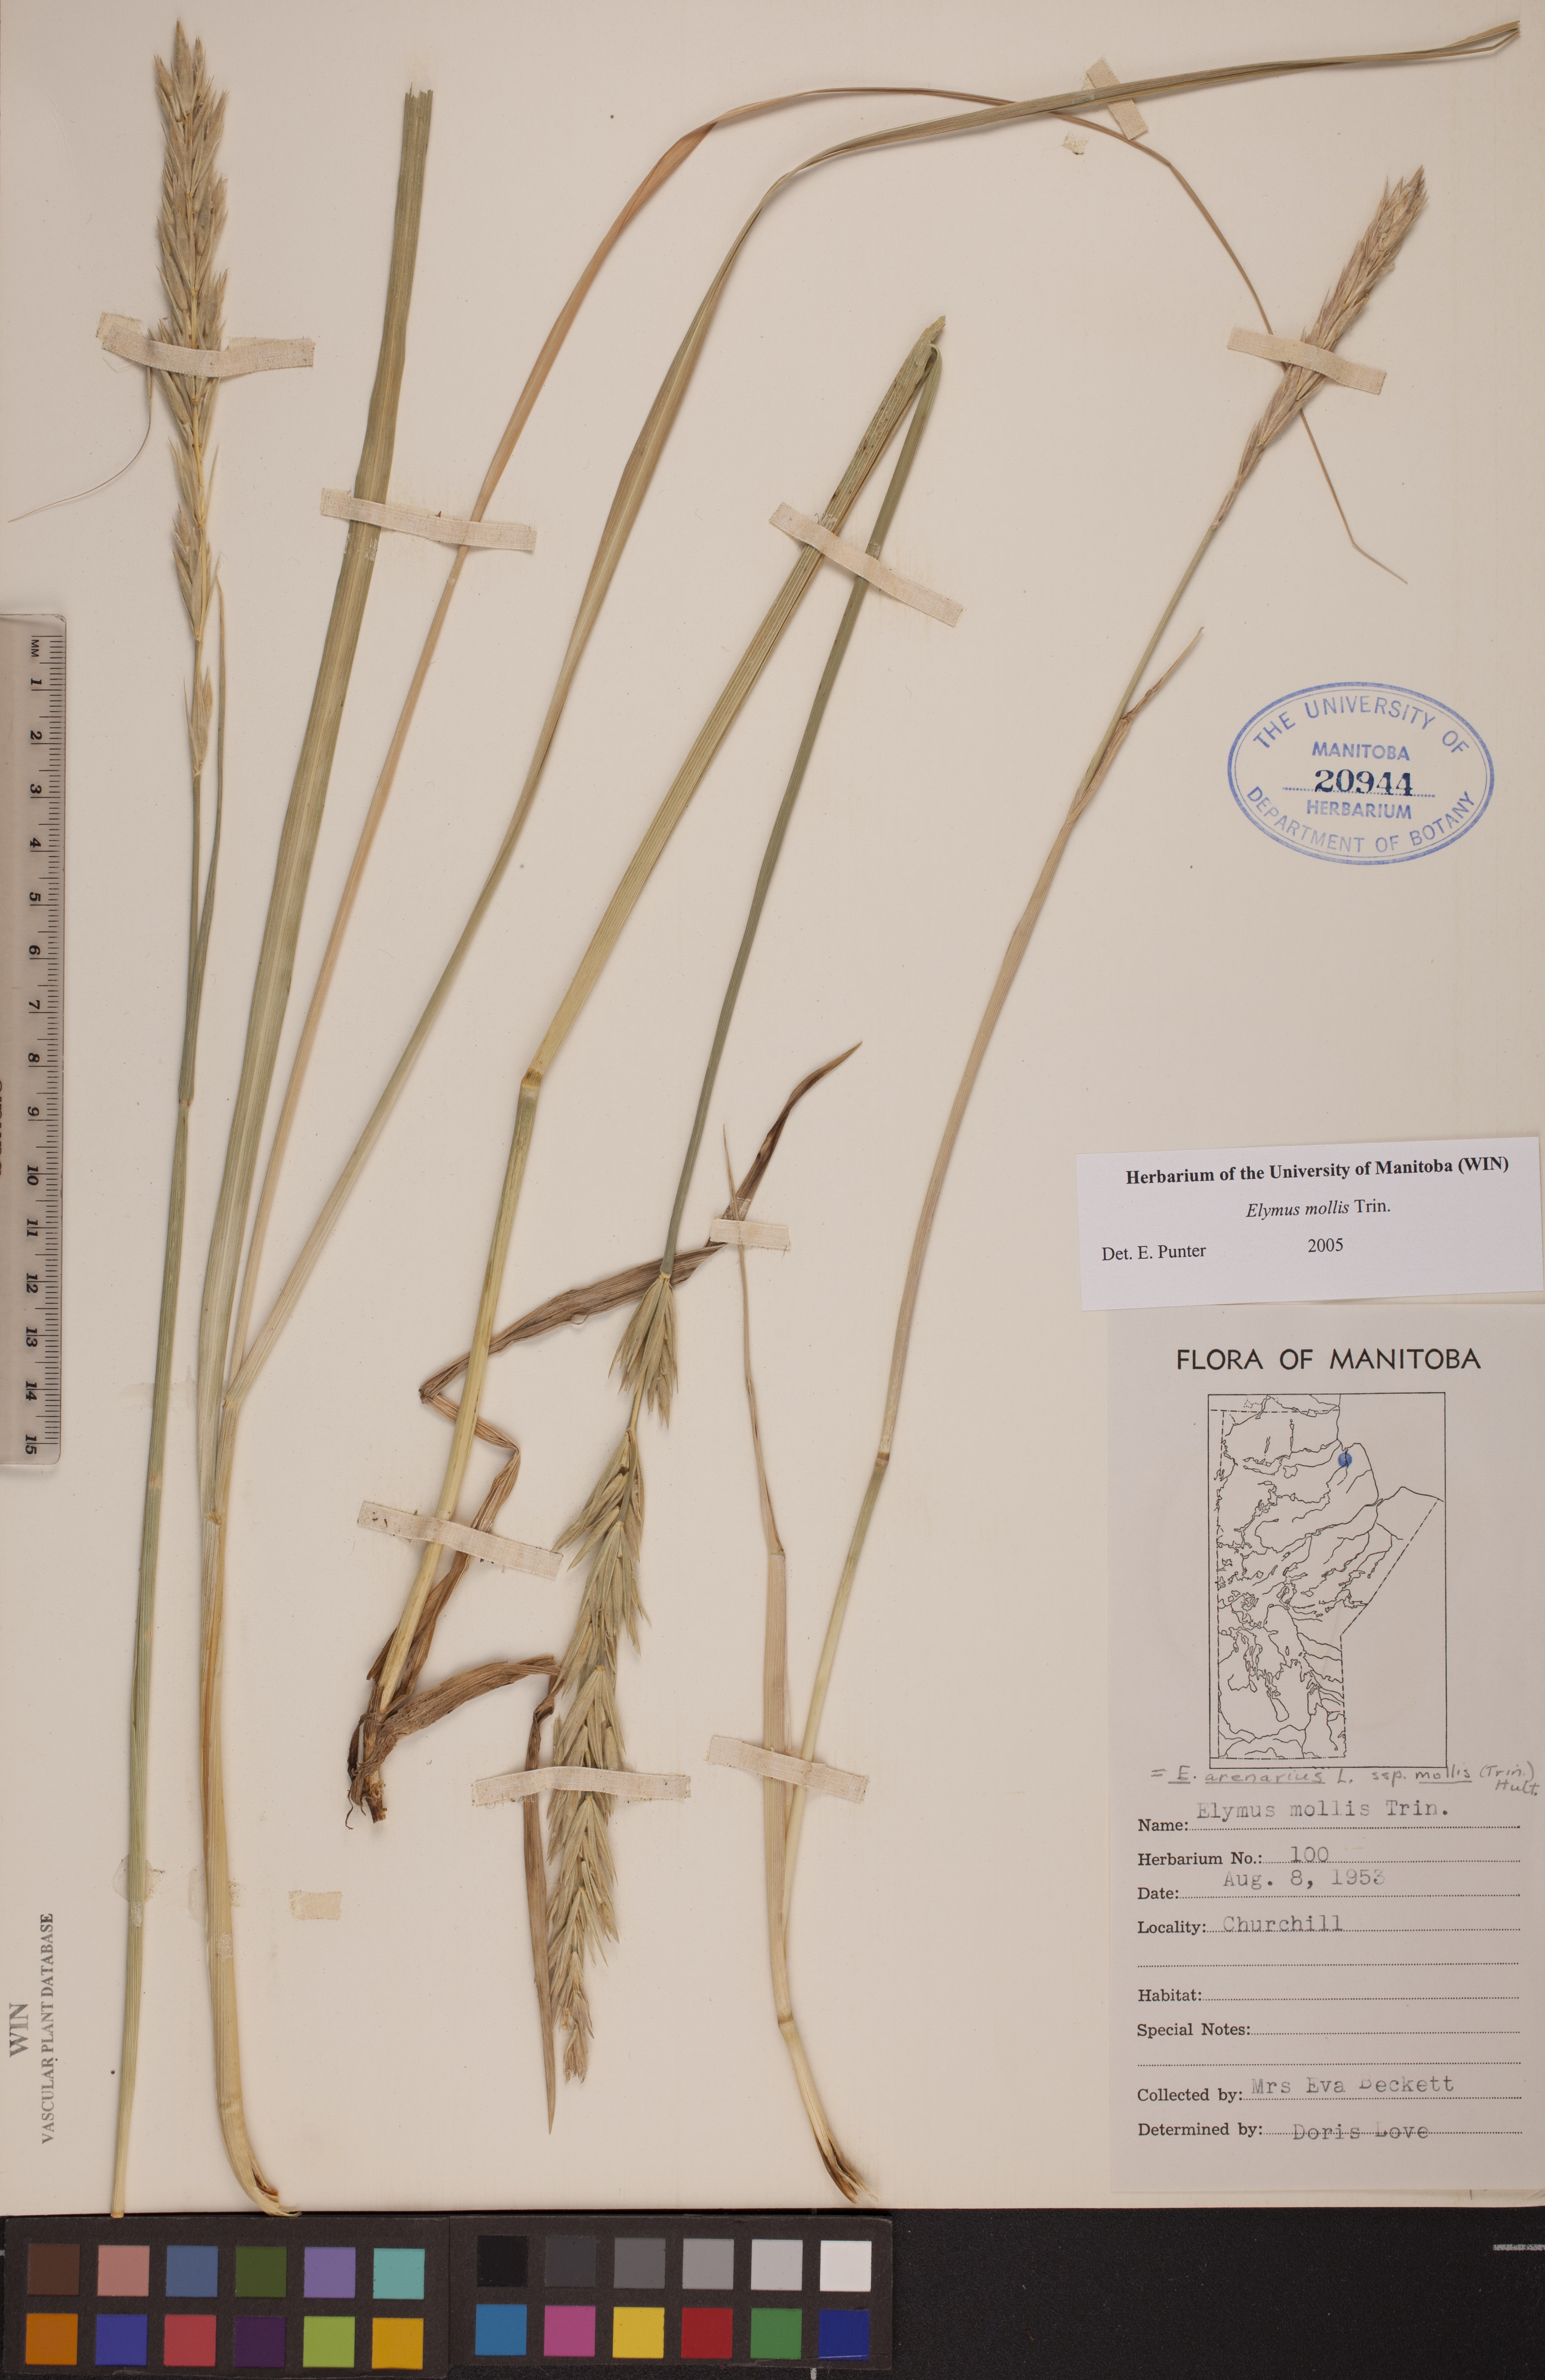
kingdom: Plantae
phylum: Tracheophyta
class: Liliopsida
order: Poales
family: Poaceae
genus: Leymus
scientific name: Leymus mollis
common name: American dune grass
